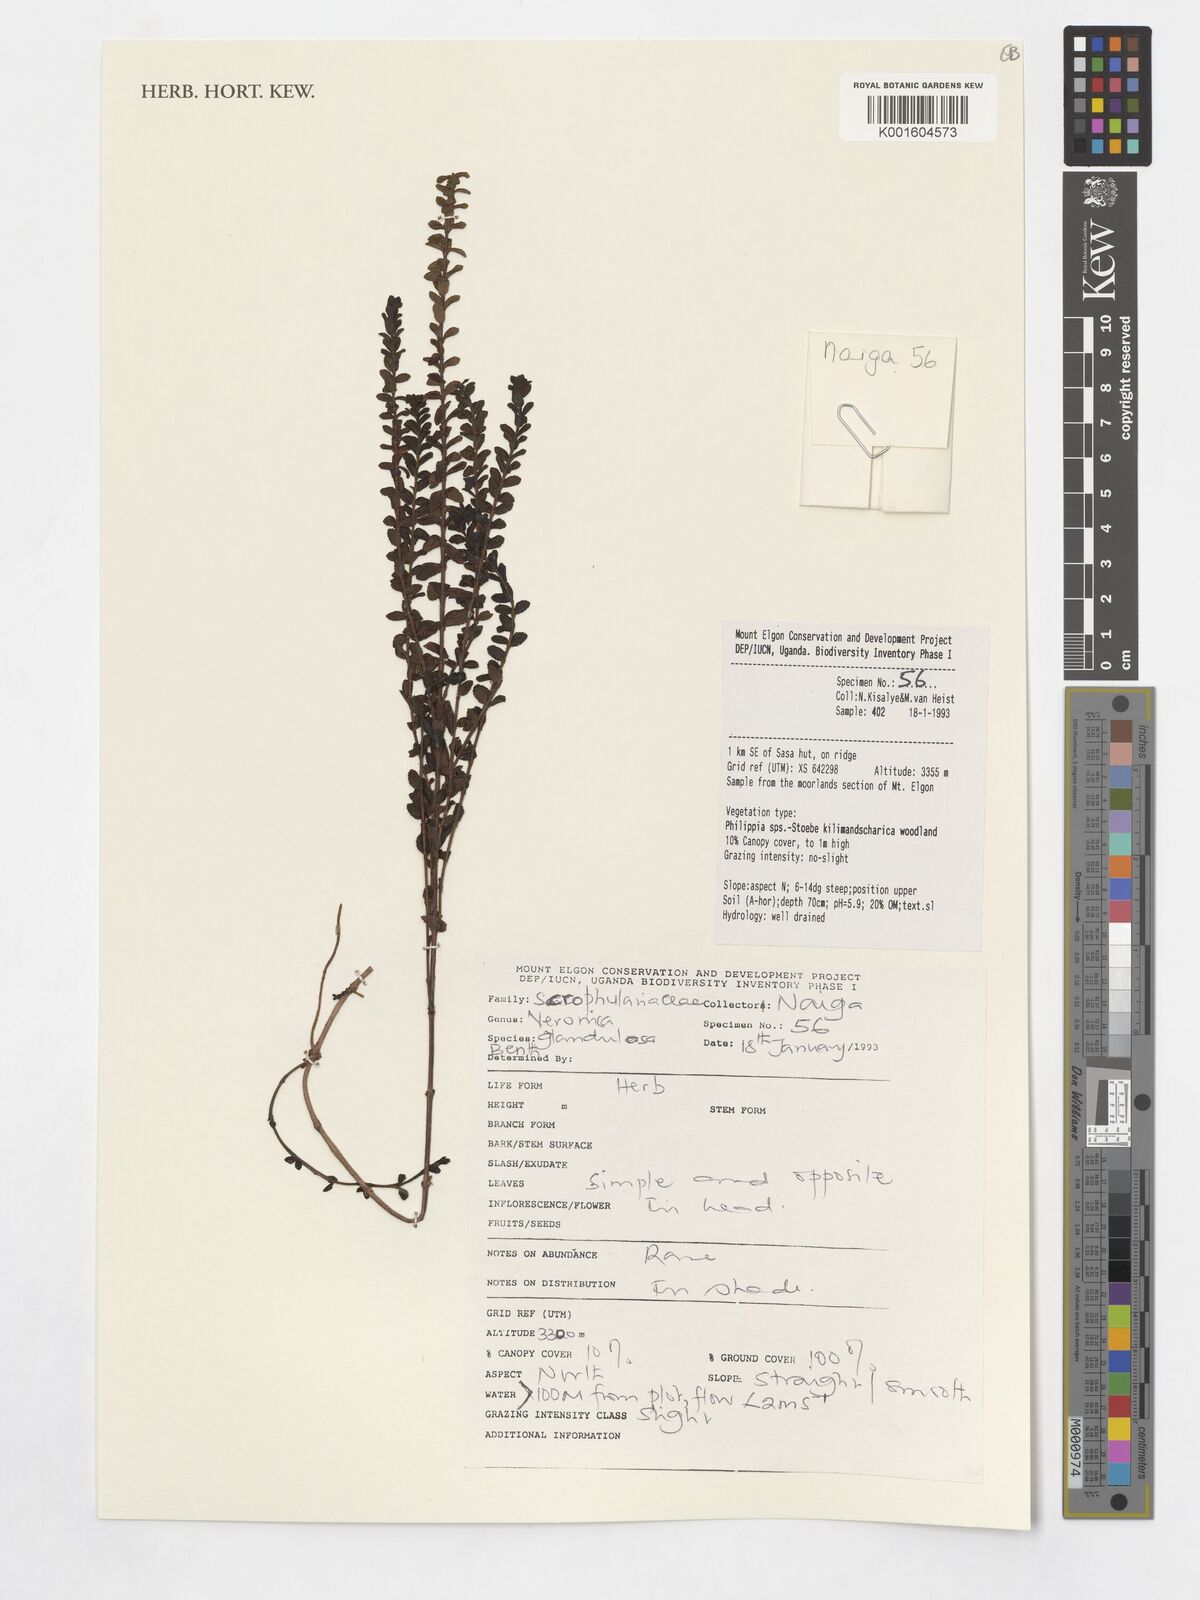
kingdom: Plantae
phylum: Tracheophyta
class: Magnoliopsida
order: Lamiales
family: Plantaginaceae
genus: Veronica
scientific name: Veronica glandulosa
